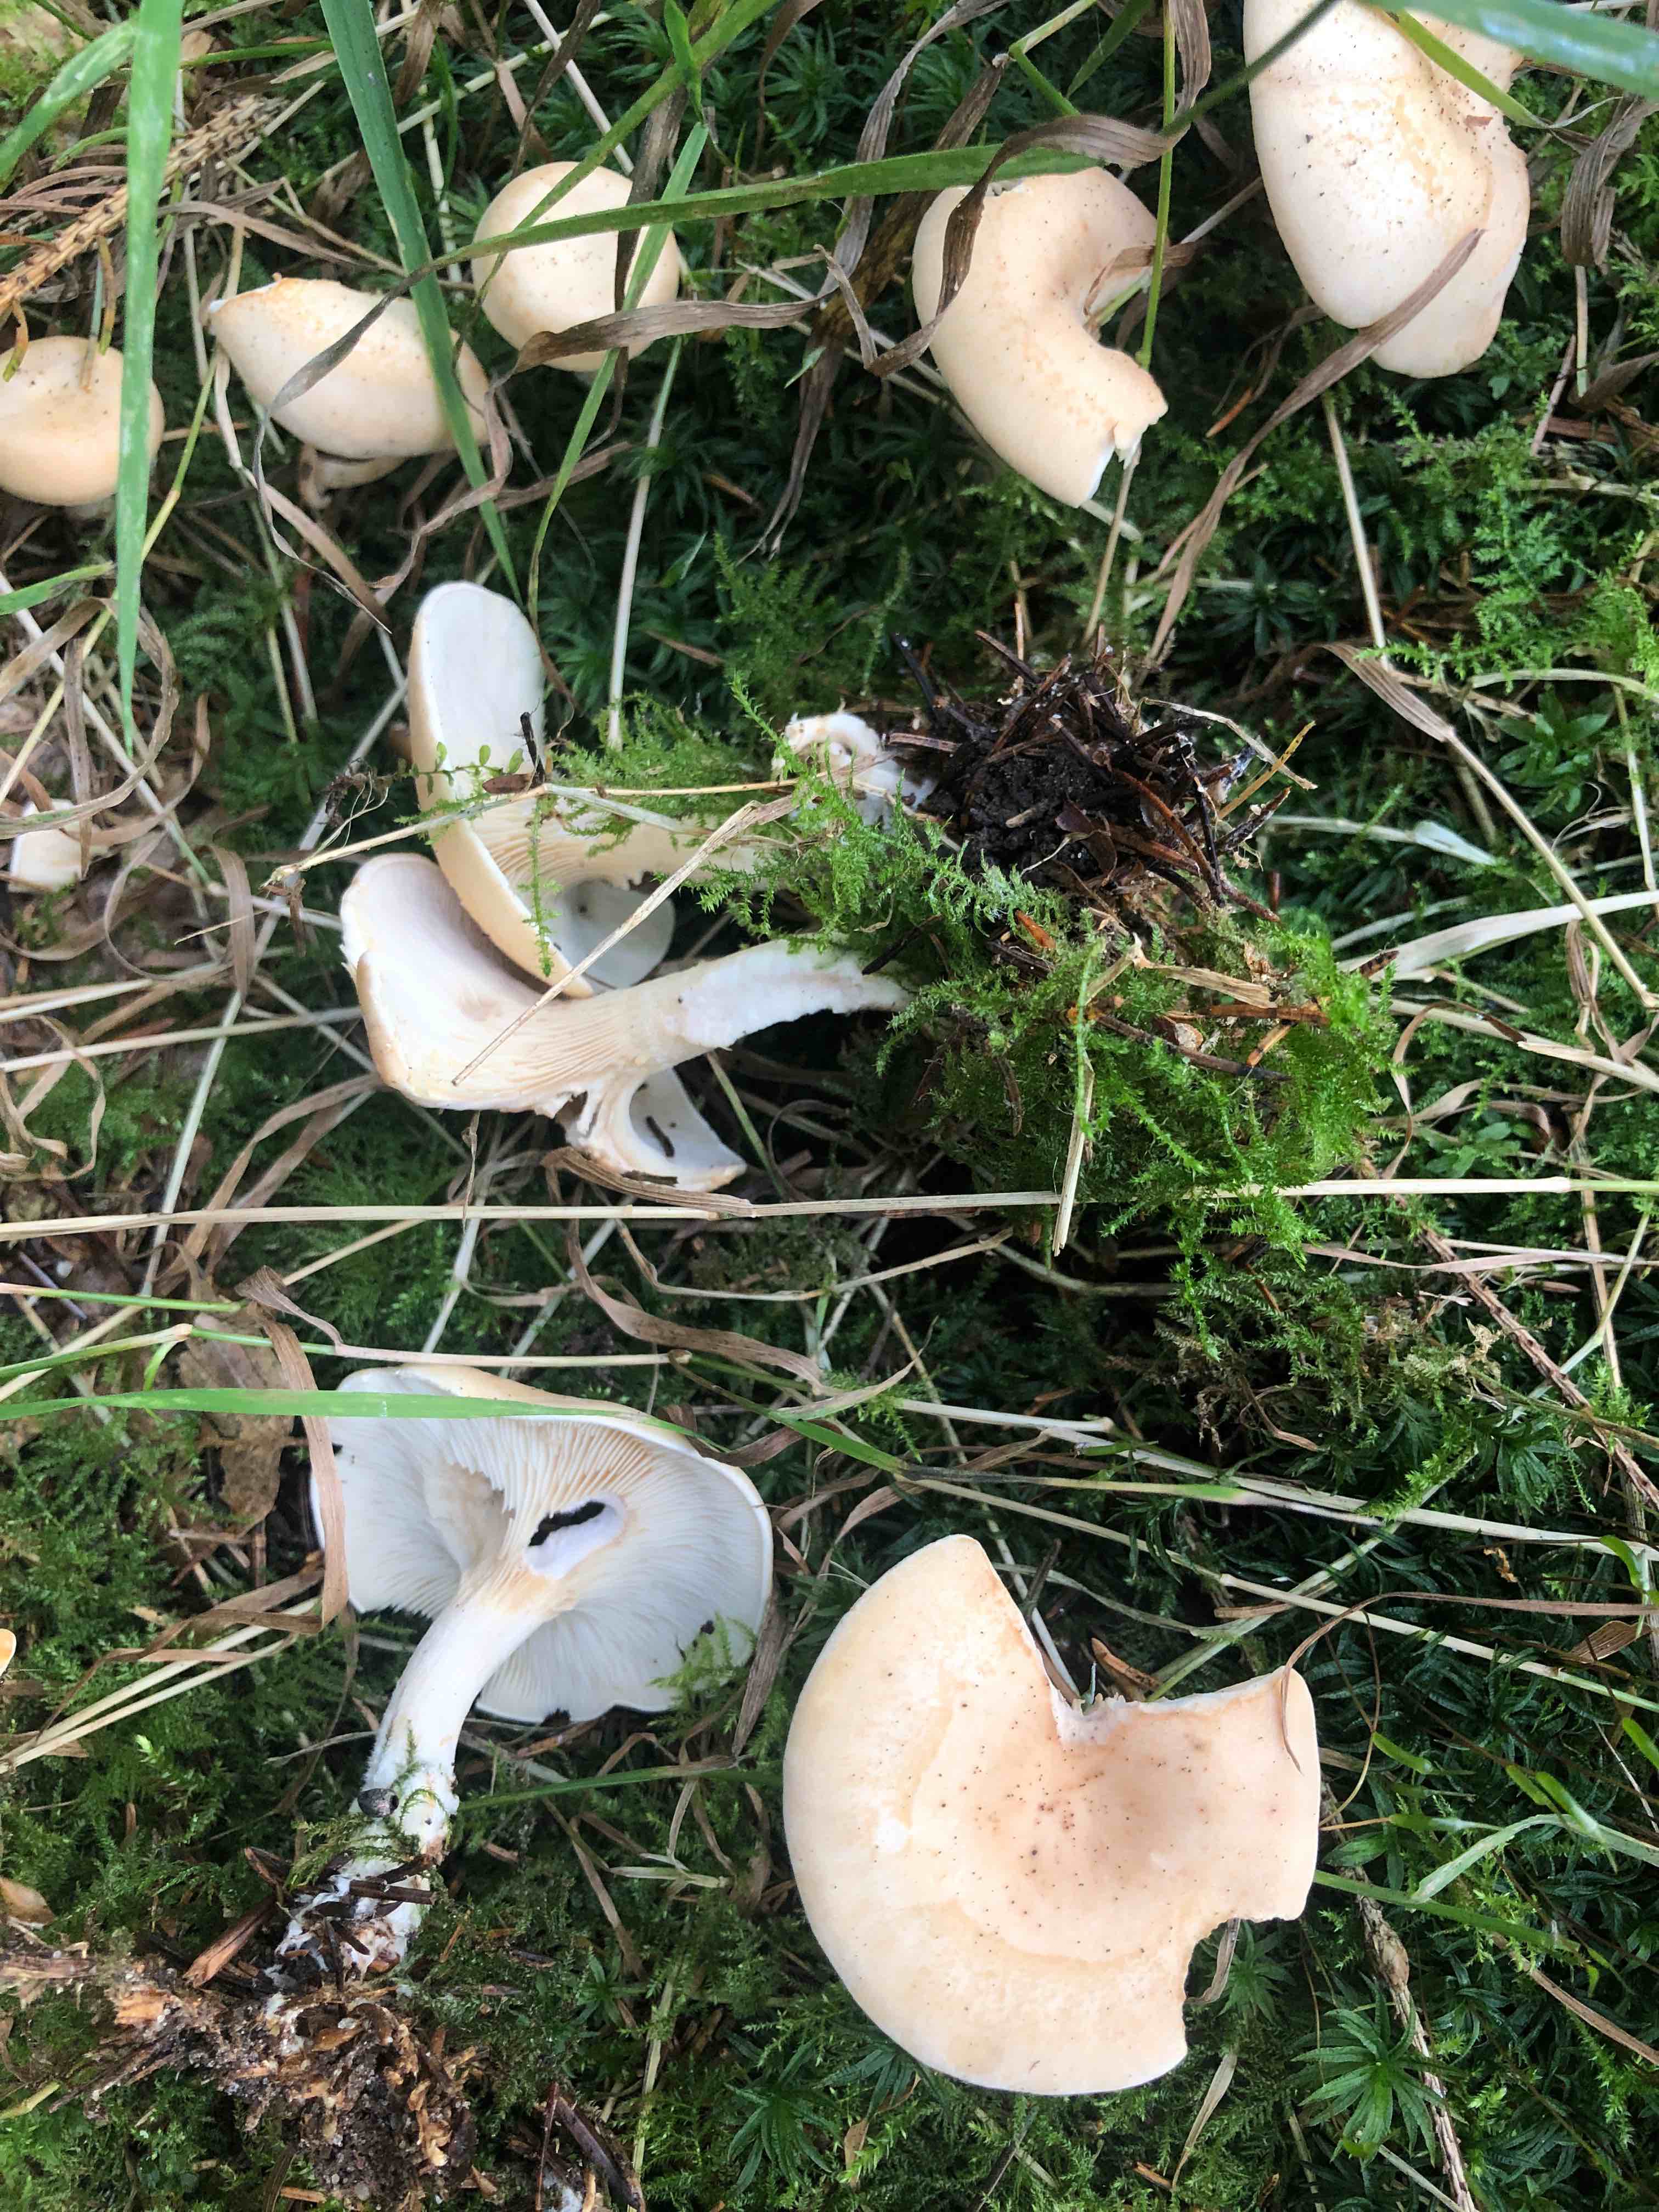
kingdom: Fungi
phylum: Basidiomycota
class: Agaricomycetes
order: Agaricales
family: Tricholomataceae
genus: Paralepista
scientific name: Paralepista flaccida
